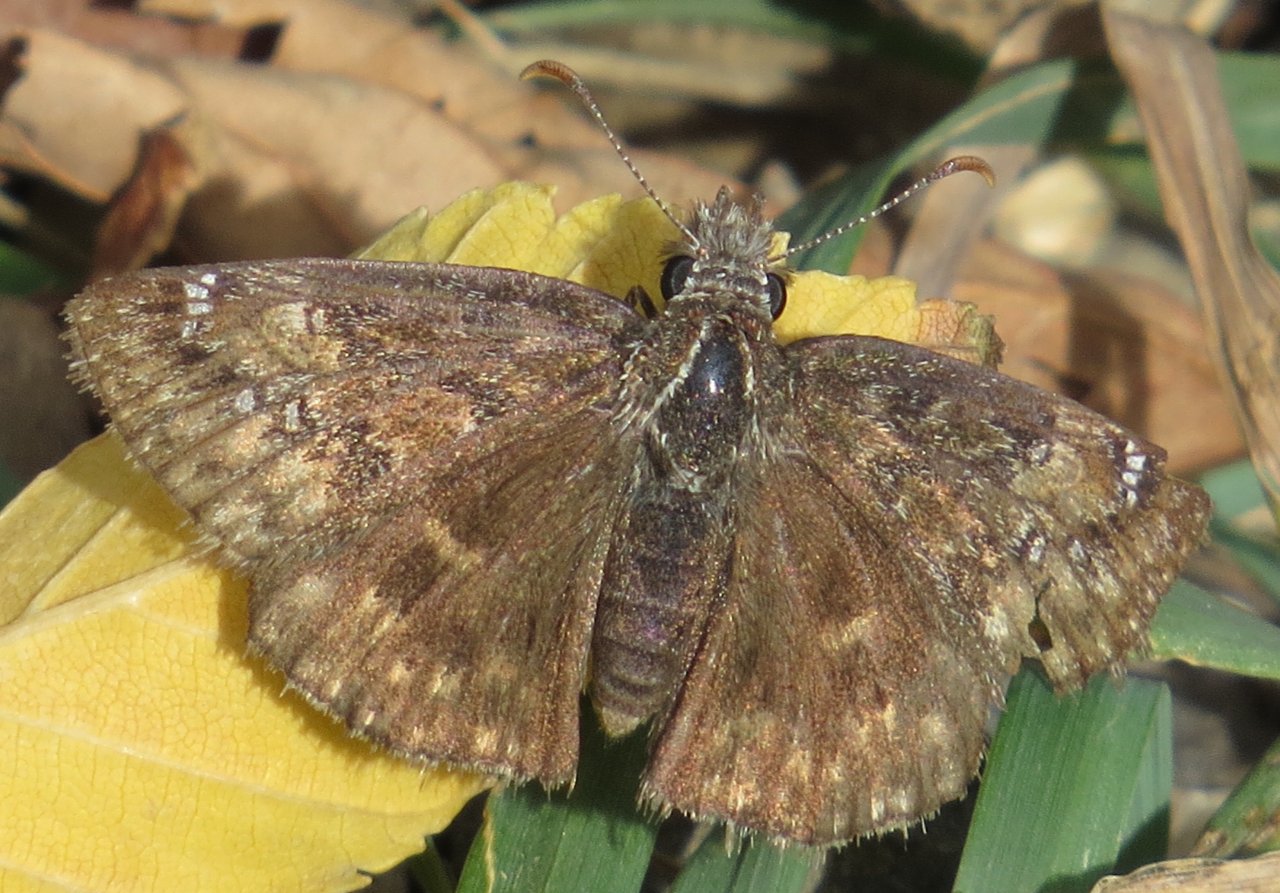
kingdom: Animalia
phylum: Arthropoda
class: Insecta
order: Lepidoptera
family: Hesperiidae
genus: Erynnis
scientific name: Erynnis afranius
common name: Afranius Duskywing
